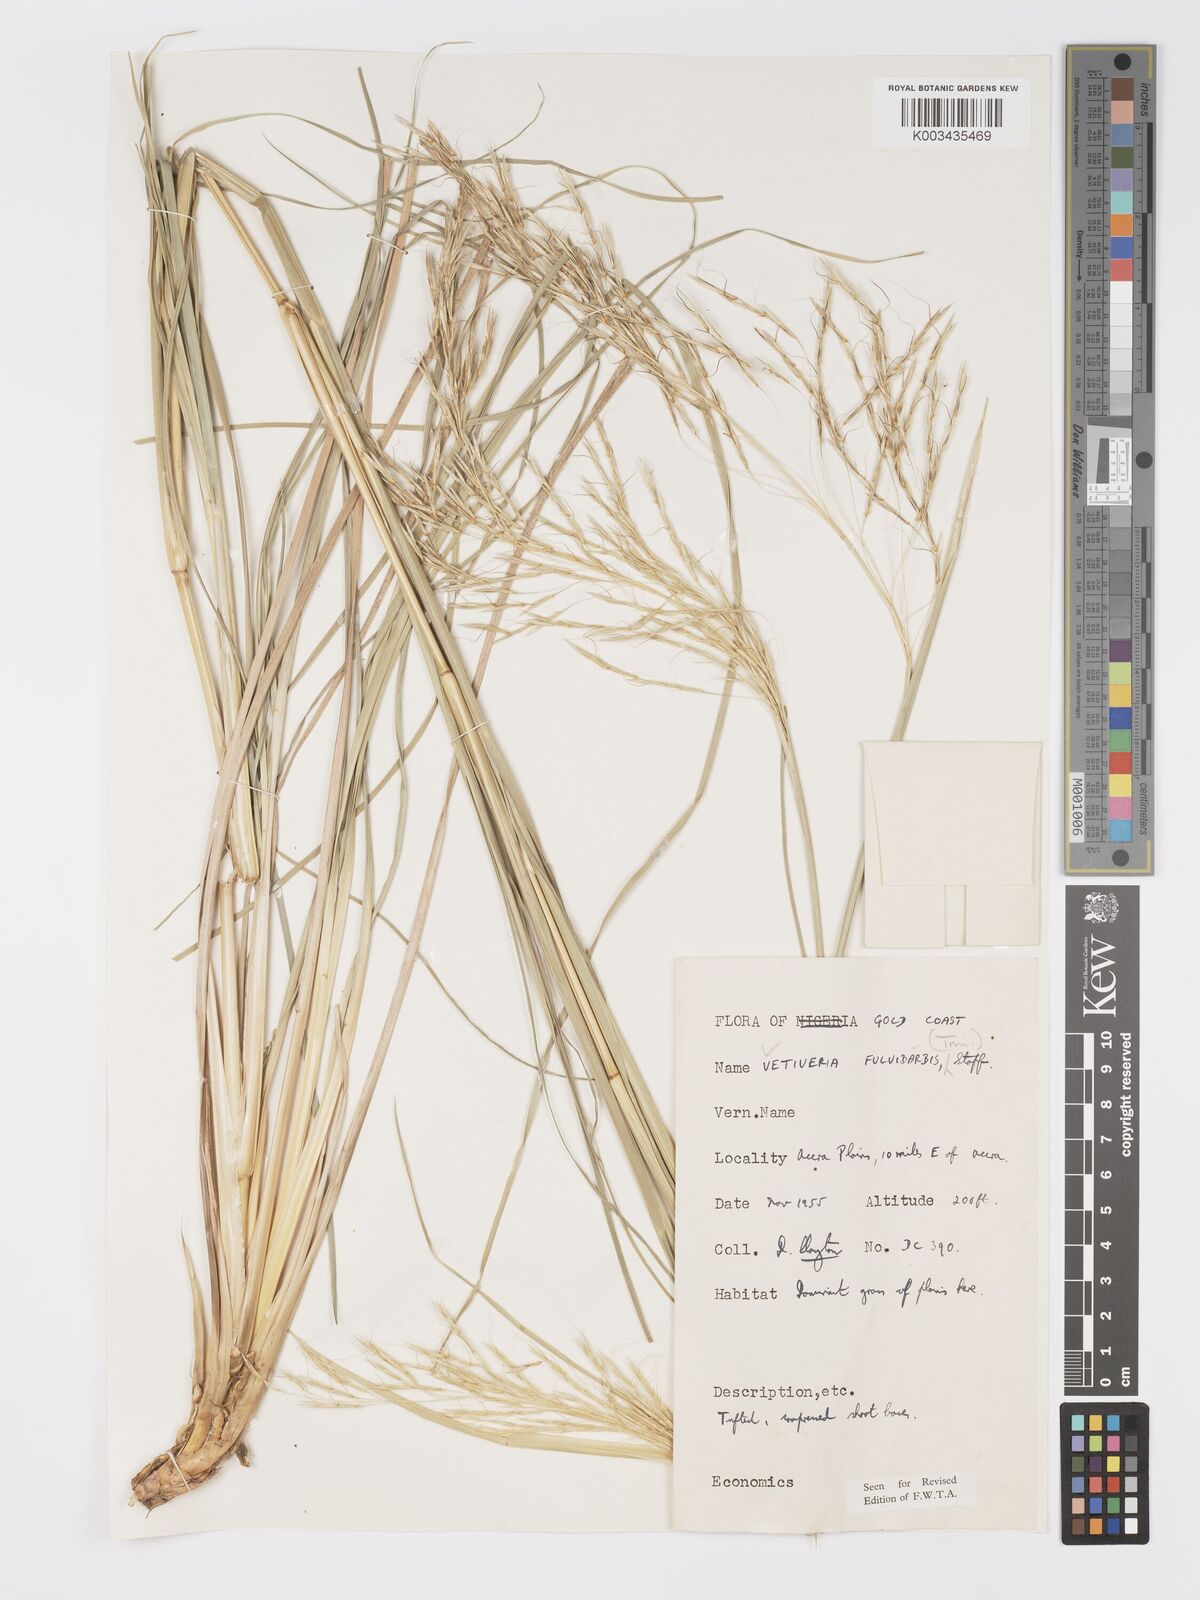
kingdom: Plantae
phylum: Tracheophyta
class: Liliopsida
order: Poales
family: Poaceae
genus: Chrysopogon
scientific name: Chrysopogon fulvibarbis
